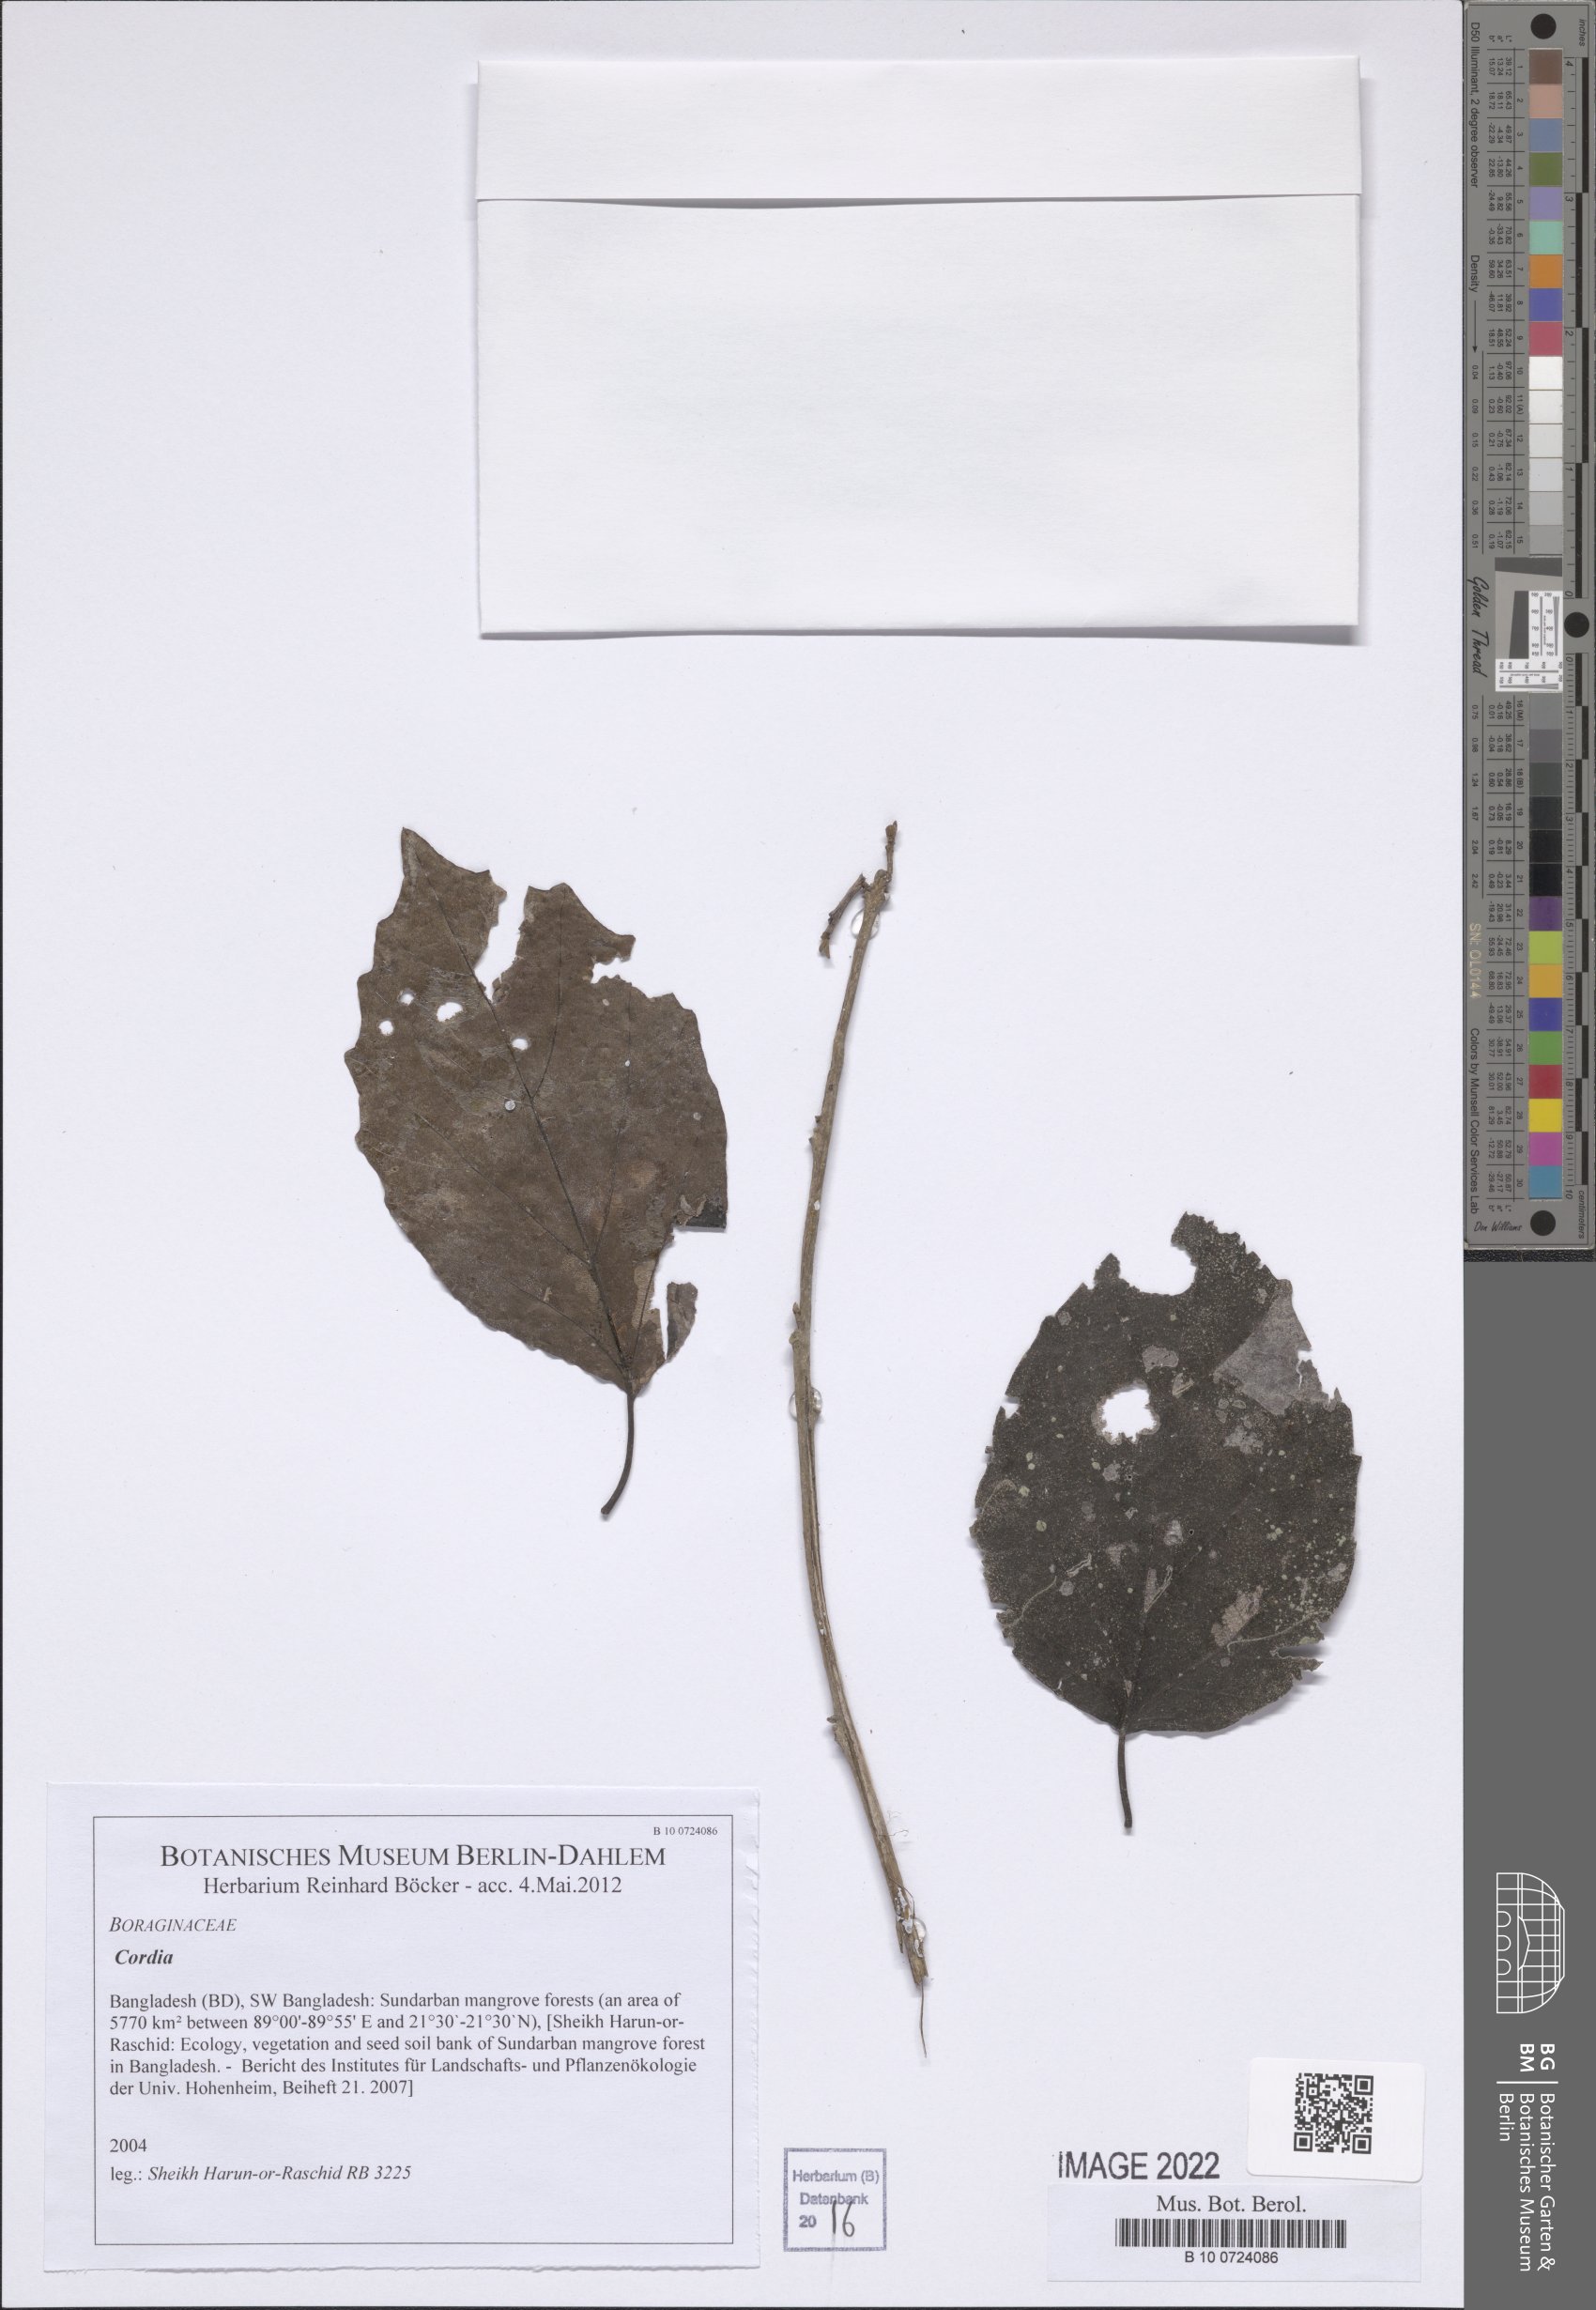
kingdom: Plantae
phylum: Tracheophyta
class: Magnoliopsida
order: Boraginales
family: Cordiaceae
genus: Cordia
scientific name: Cordia
